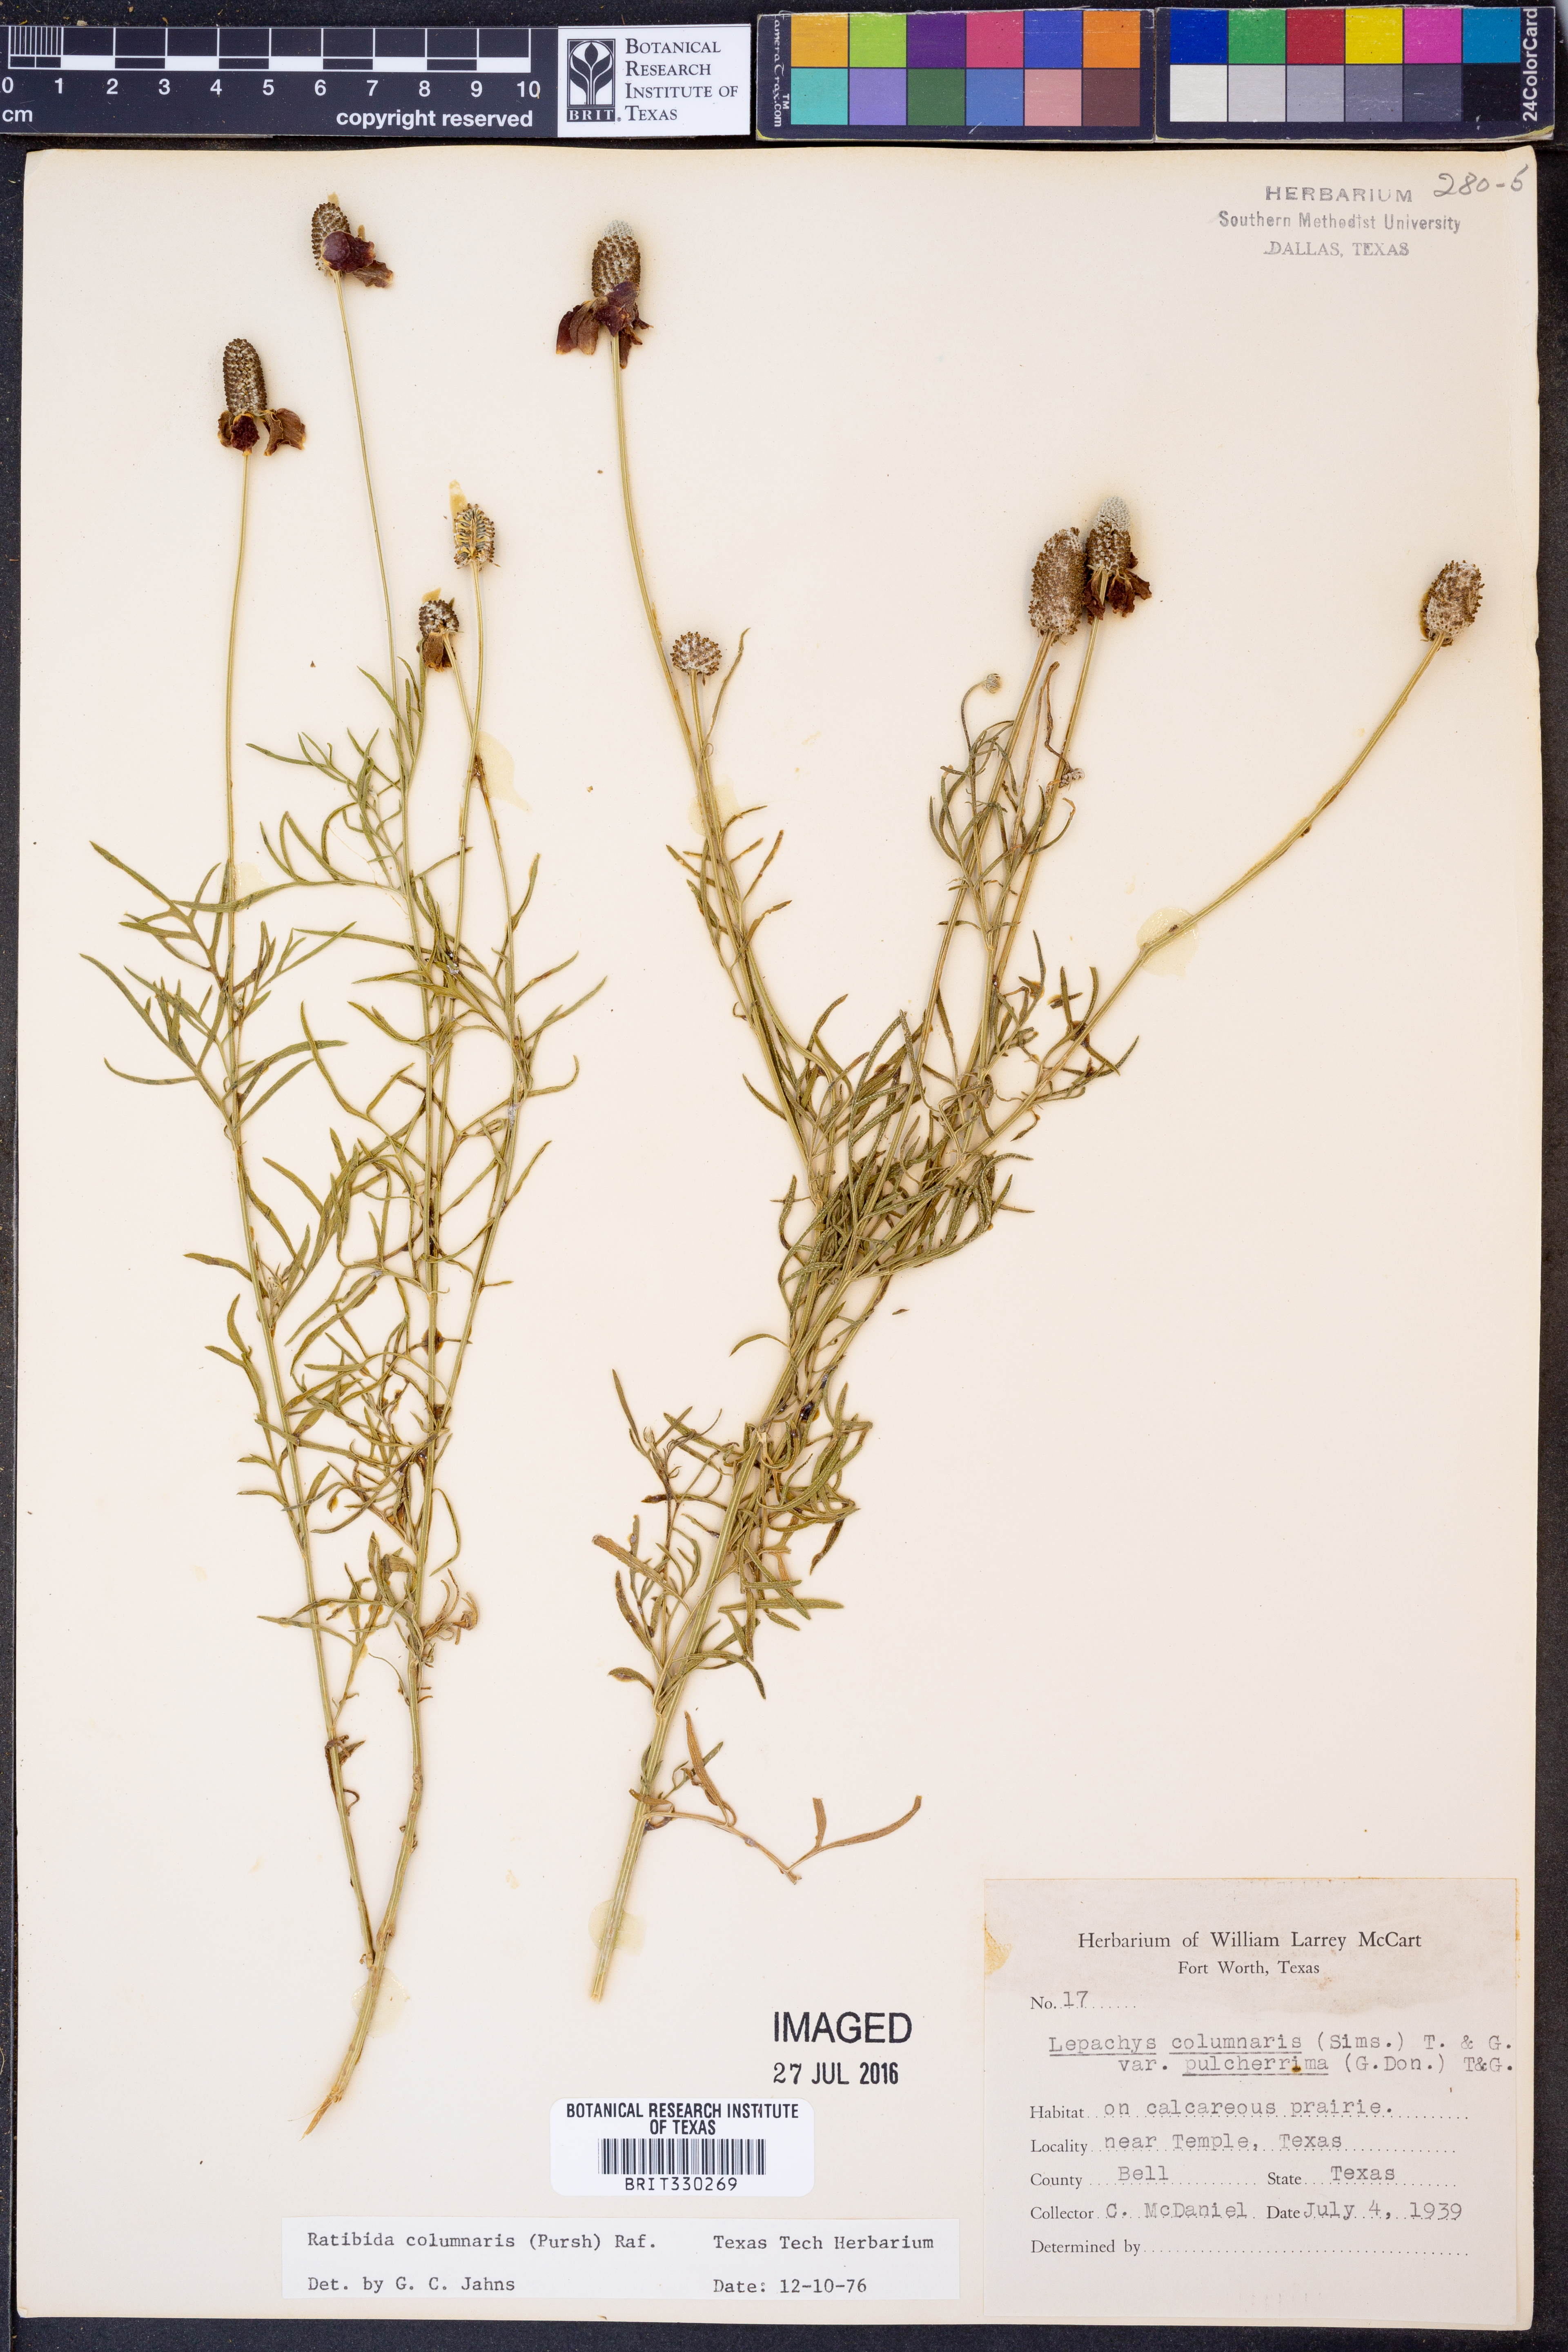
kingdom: Plantae
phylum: Tracheophyta
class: Magnoliopsida
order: Asterales
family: Asteraceae
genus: Ratibida
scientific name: Ratibida columnifera
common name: Prairie coneflower
